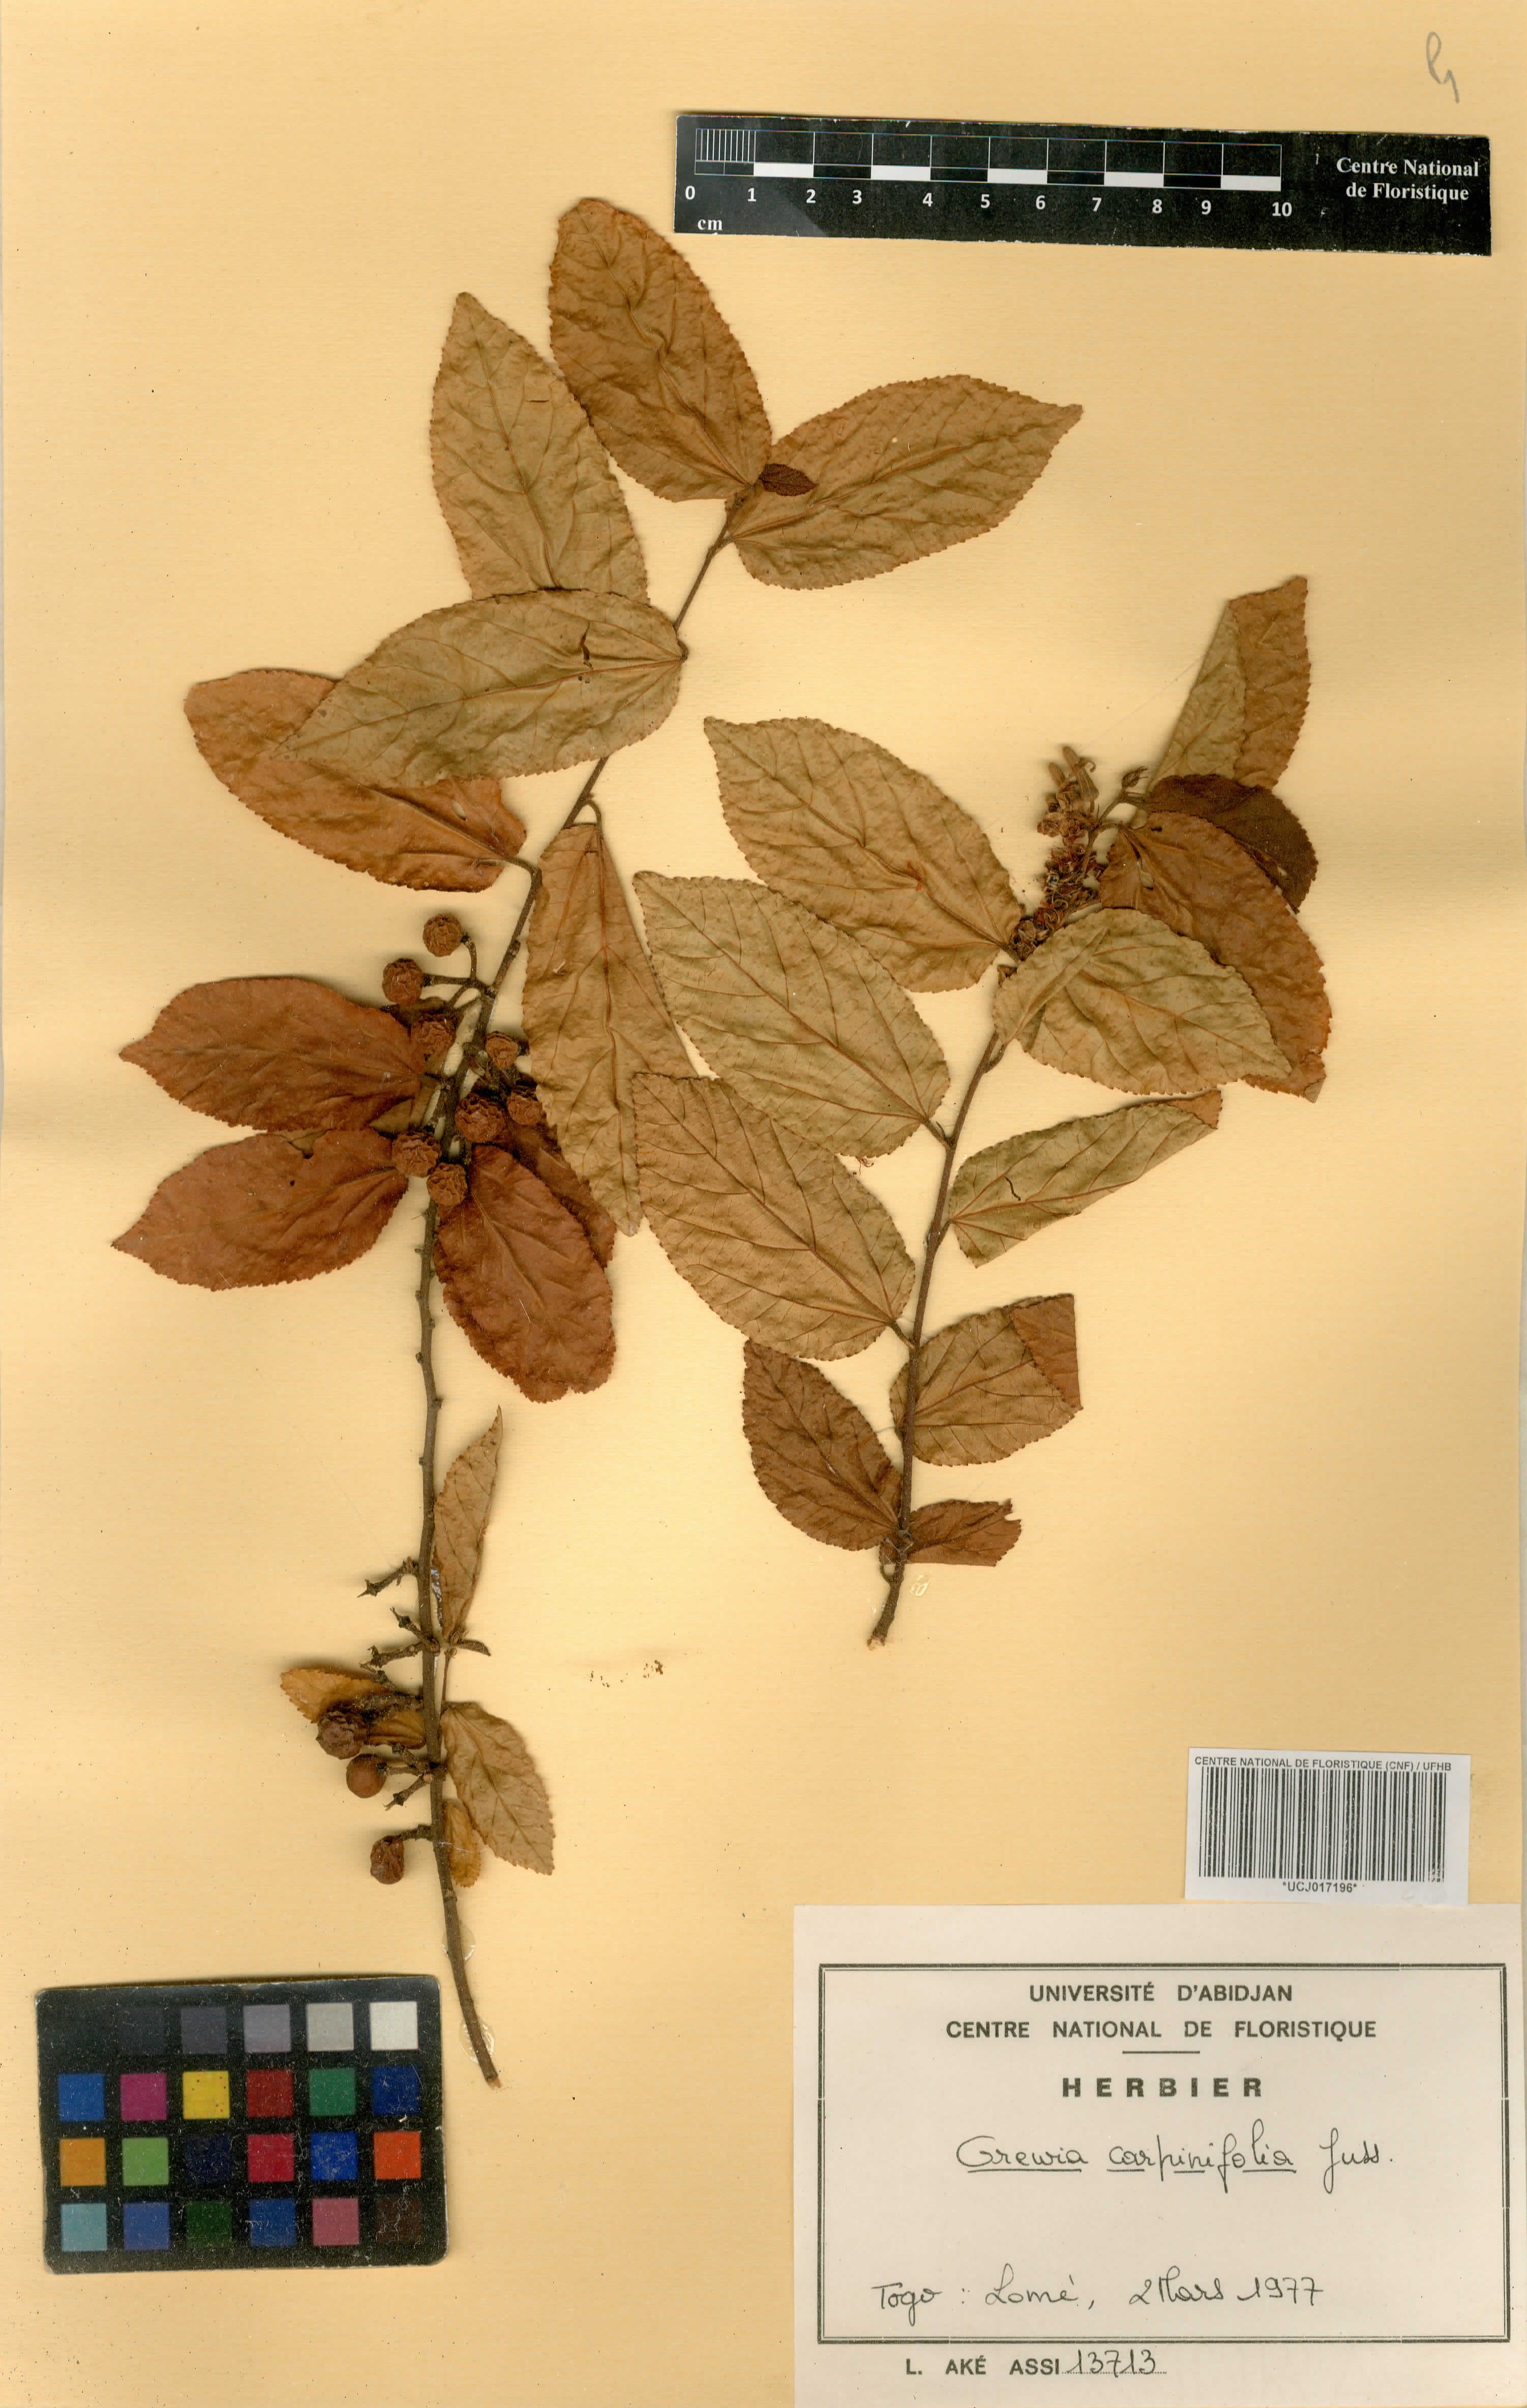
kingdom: Plantae
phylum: Tracheophyta
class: Magnoliopsida
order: Malvales
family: Malvaceae
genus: Grewia
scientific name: Grewia carpinifolia
